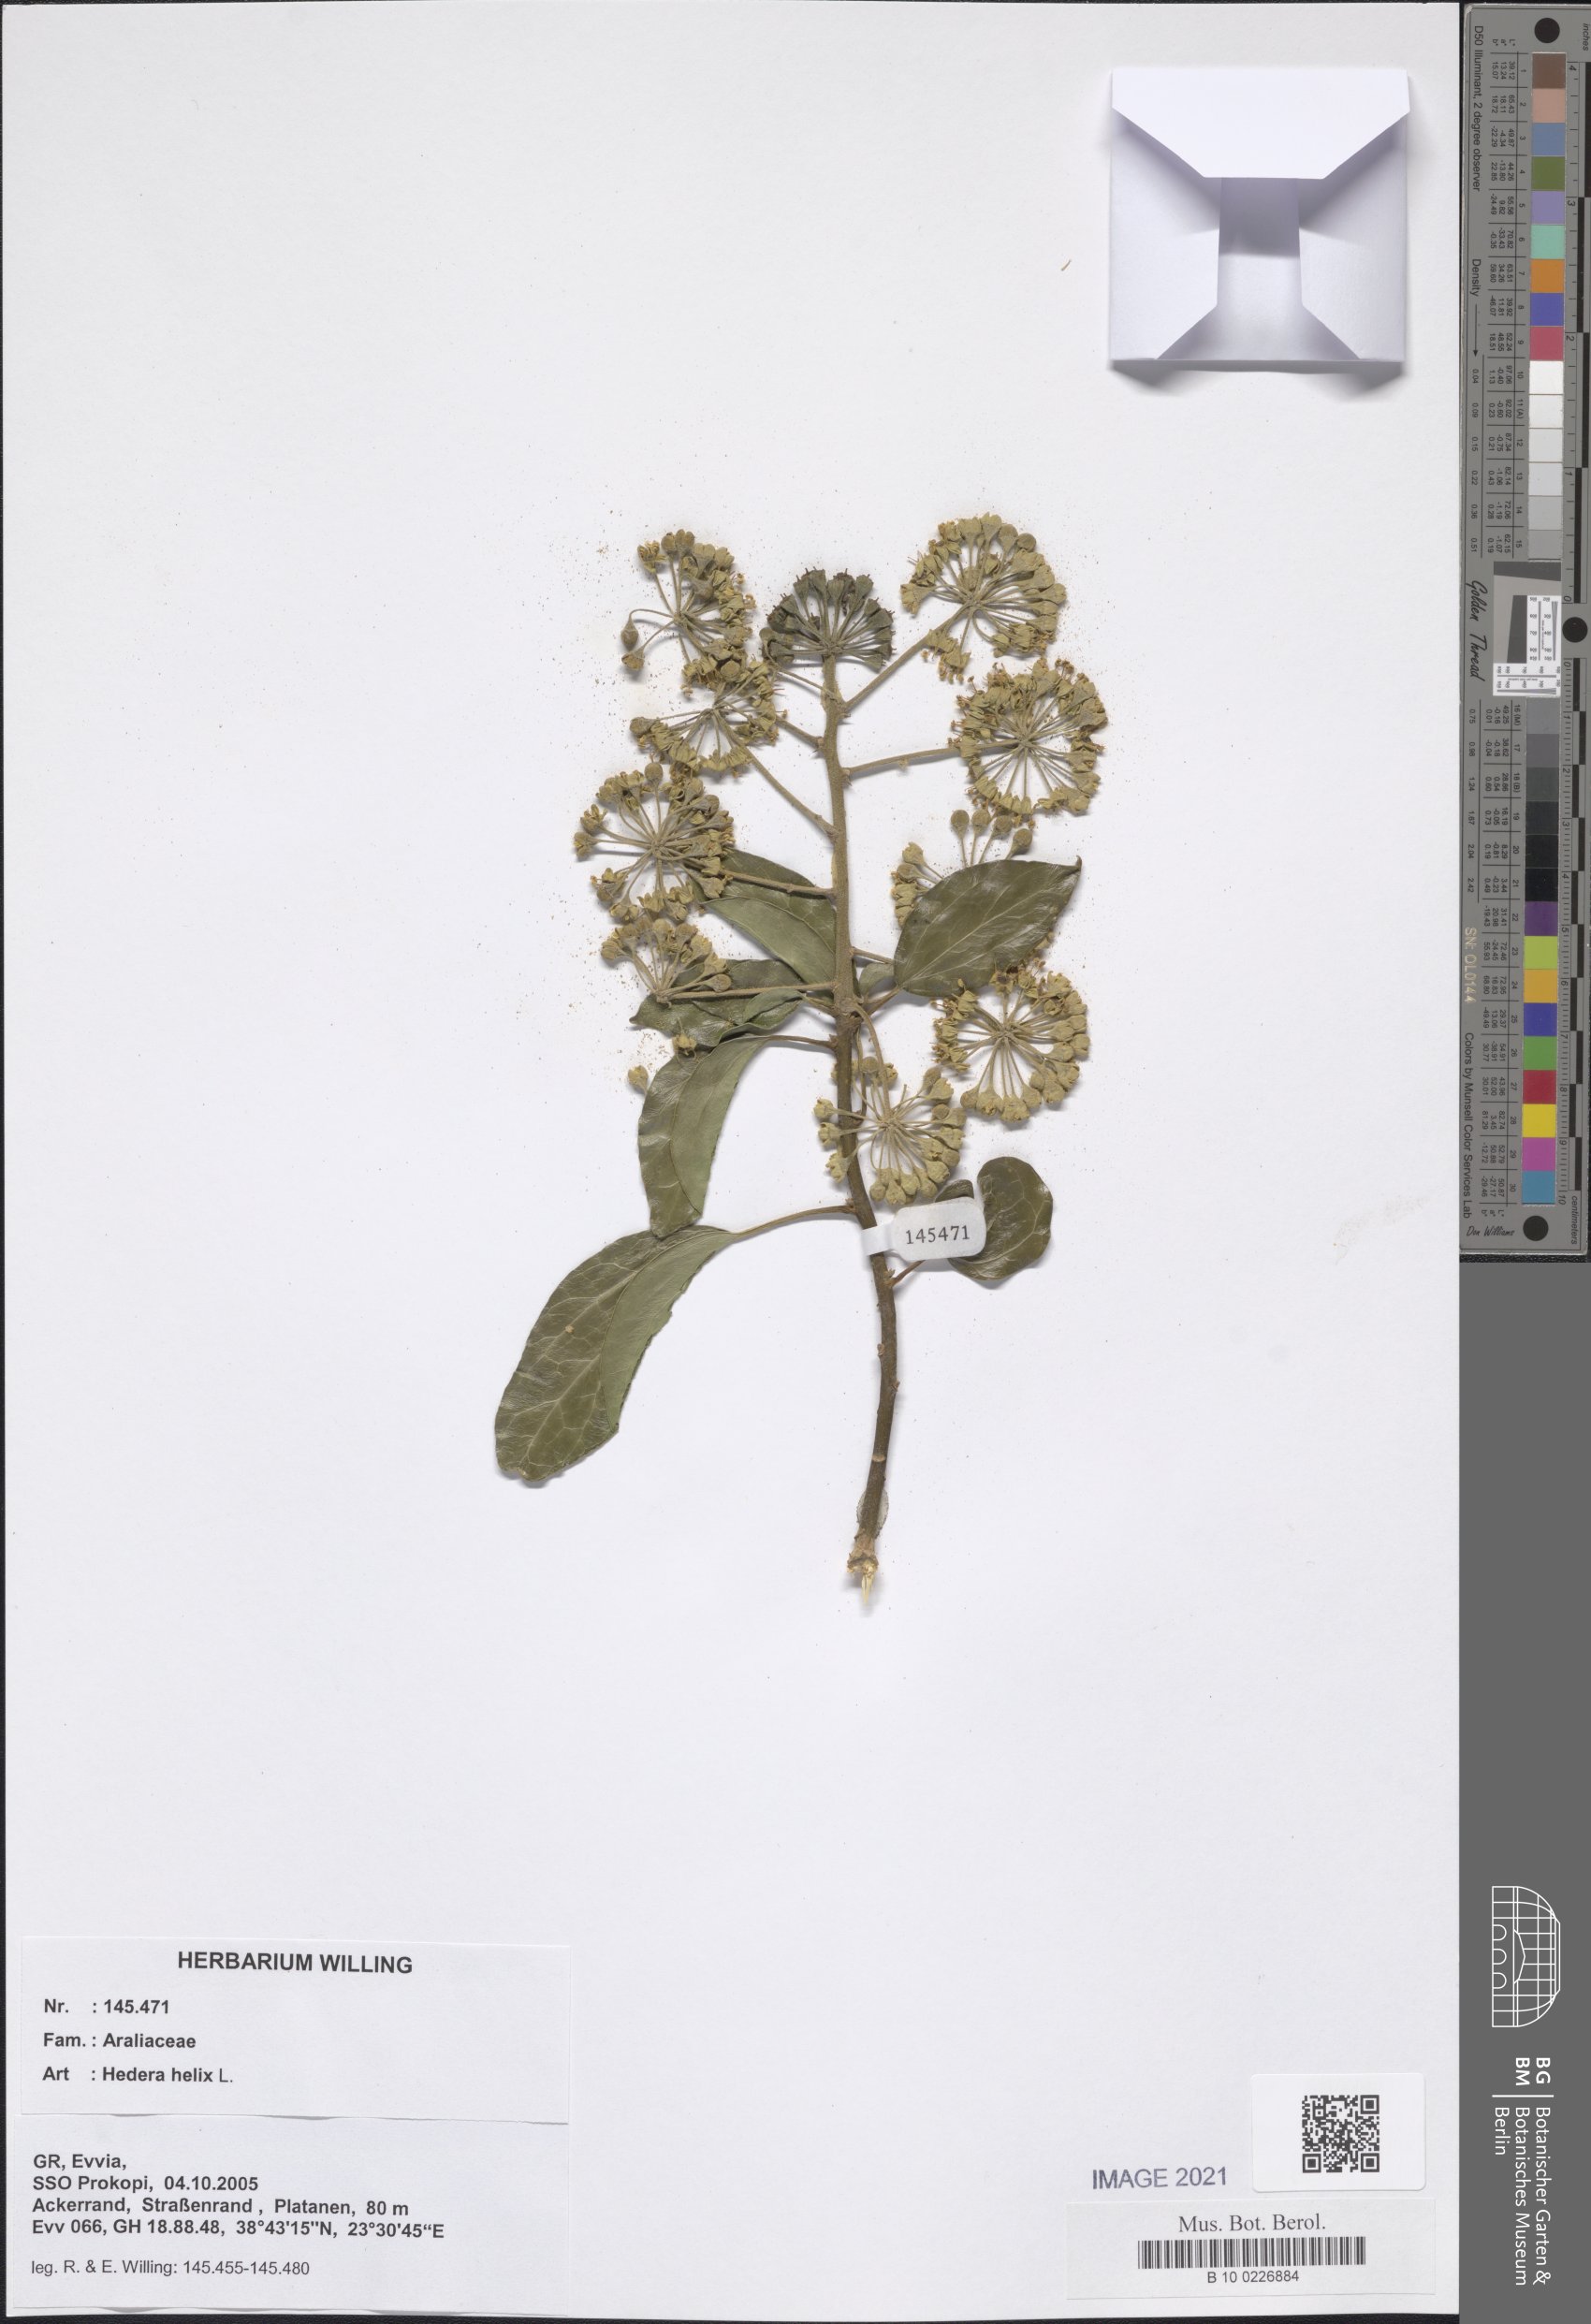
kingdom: Plantae
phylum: Tracheophyta
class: Magnoliopsida
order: Apiales
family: Araliaceae
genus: Hedera
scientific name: Hedera helix
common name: Ivy
